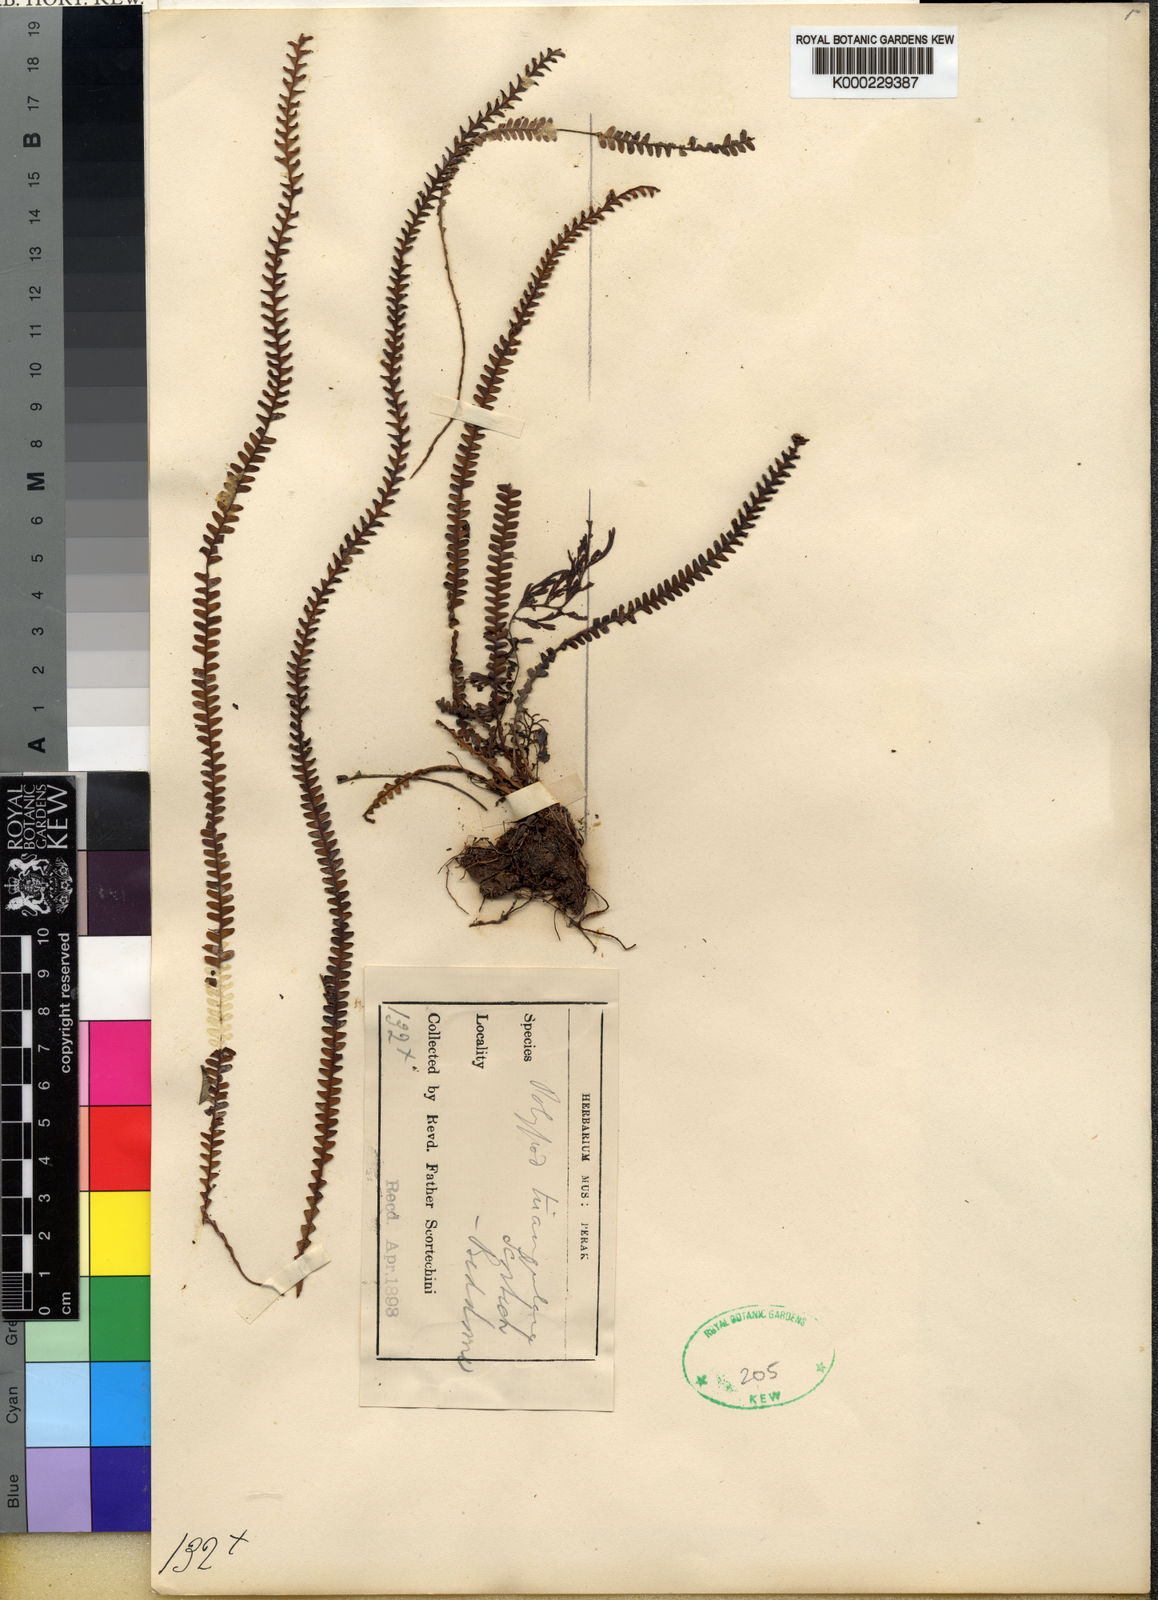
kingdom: Plantae
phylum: Tracheophyta
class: Polypodiopsida
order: Polypodiales
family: Polypodiaceae
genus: Acrosorus
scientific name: Acrosorus friderici-et-pauli
